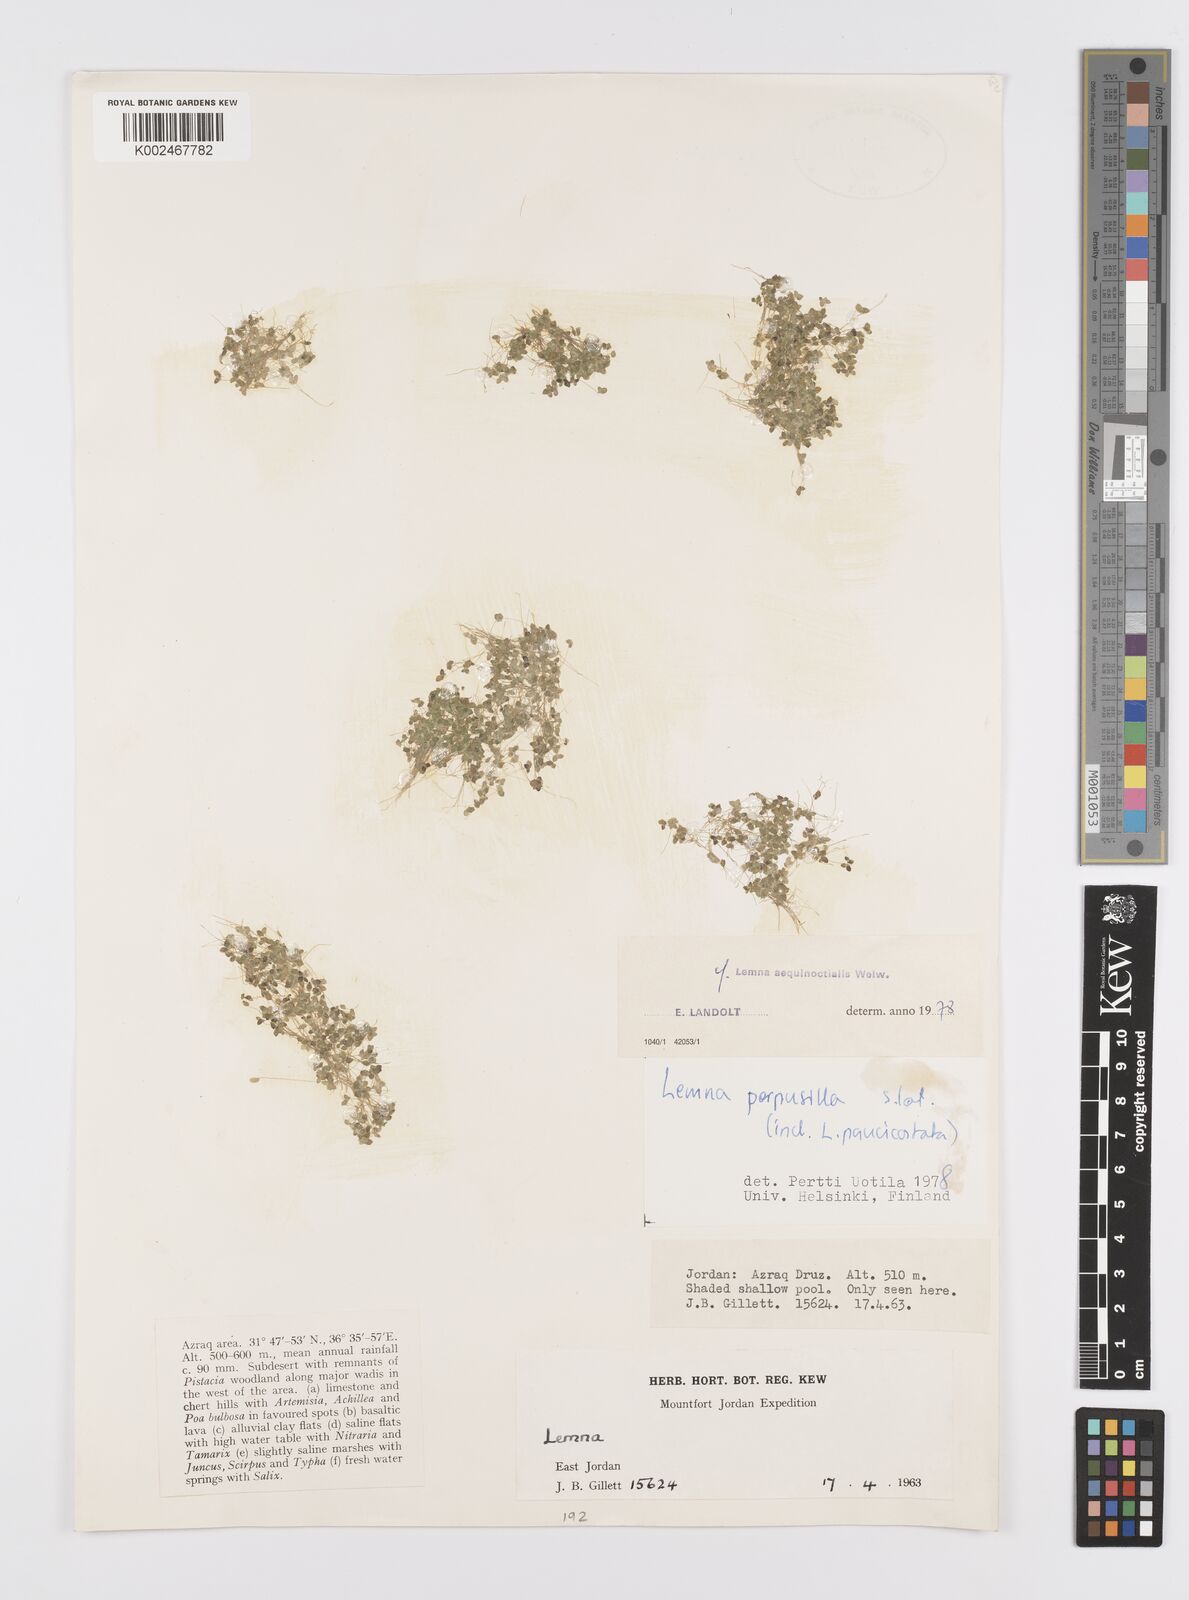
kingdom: Plantae
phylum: Tracheophyta
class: Liliopsida
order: Alismatales
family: Araceae
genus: Lemna
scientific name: Lemna aequinoctialis
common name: Duckweed
